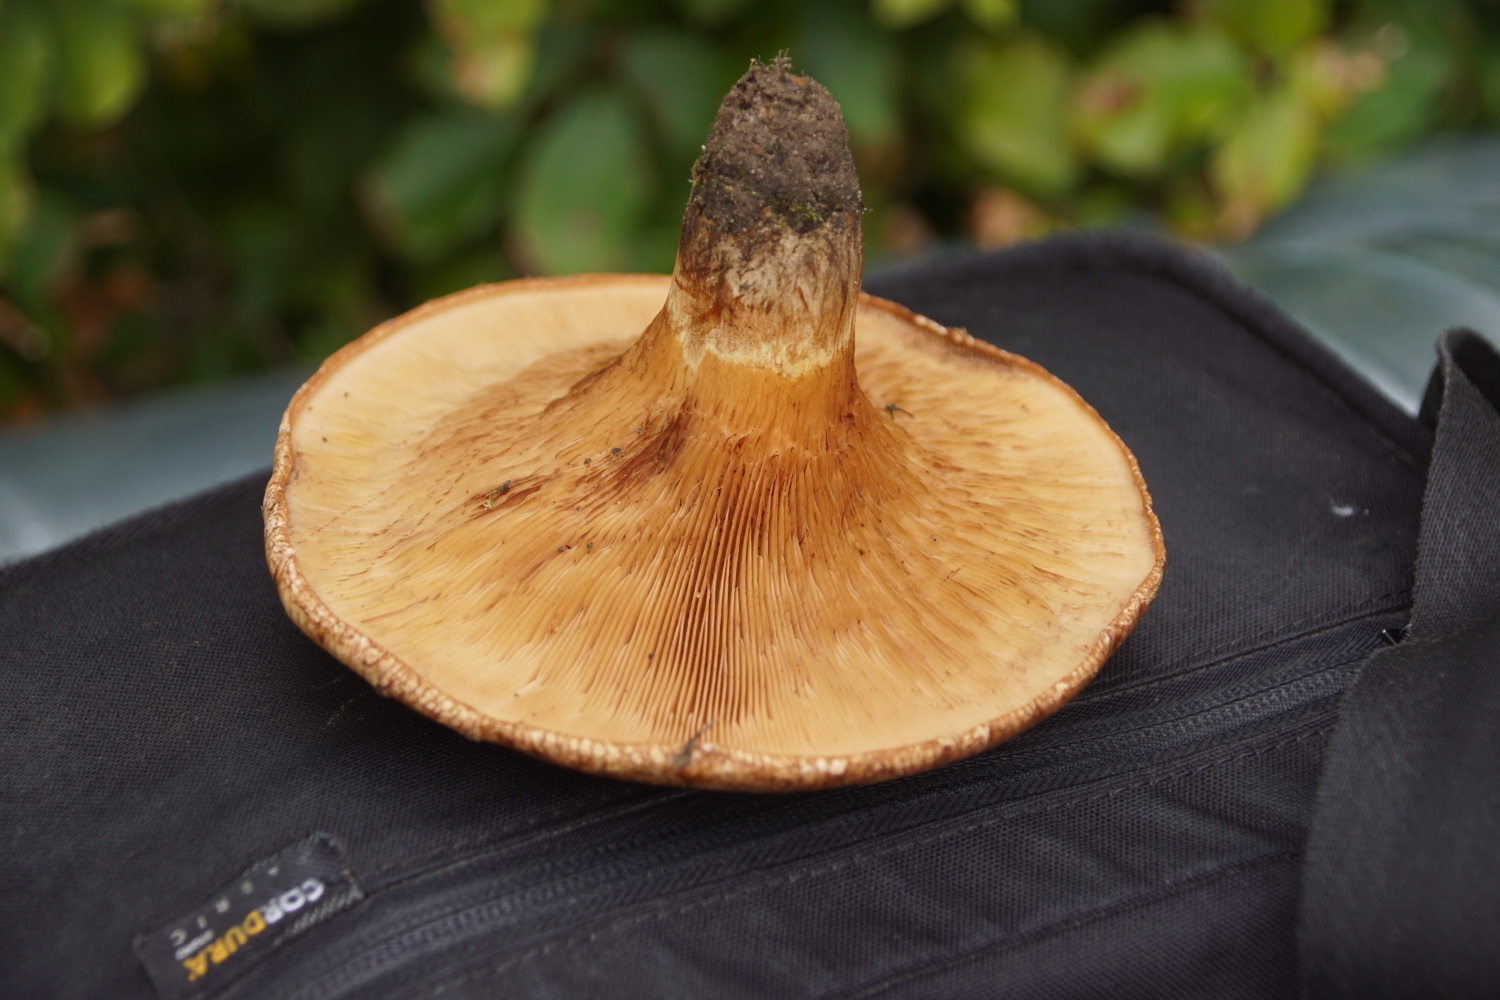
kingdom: Fungi
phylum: Basidiomycota
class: Agaricomycetes
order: Boletales
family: Paxillaceae
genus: Paxillus
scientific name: Paxillus obscurisporus
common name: mahognisporet netbladhat
